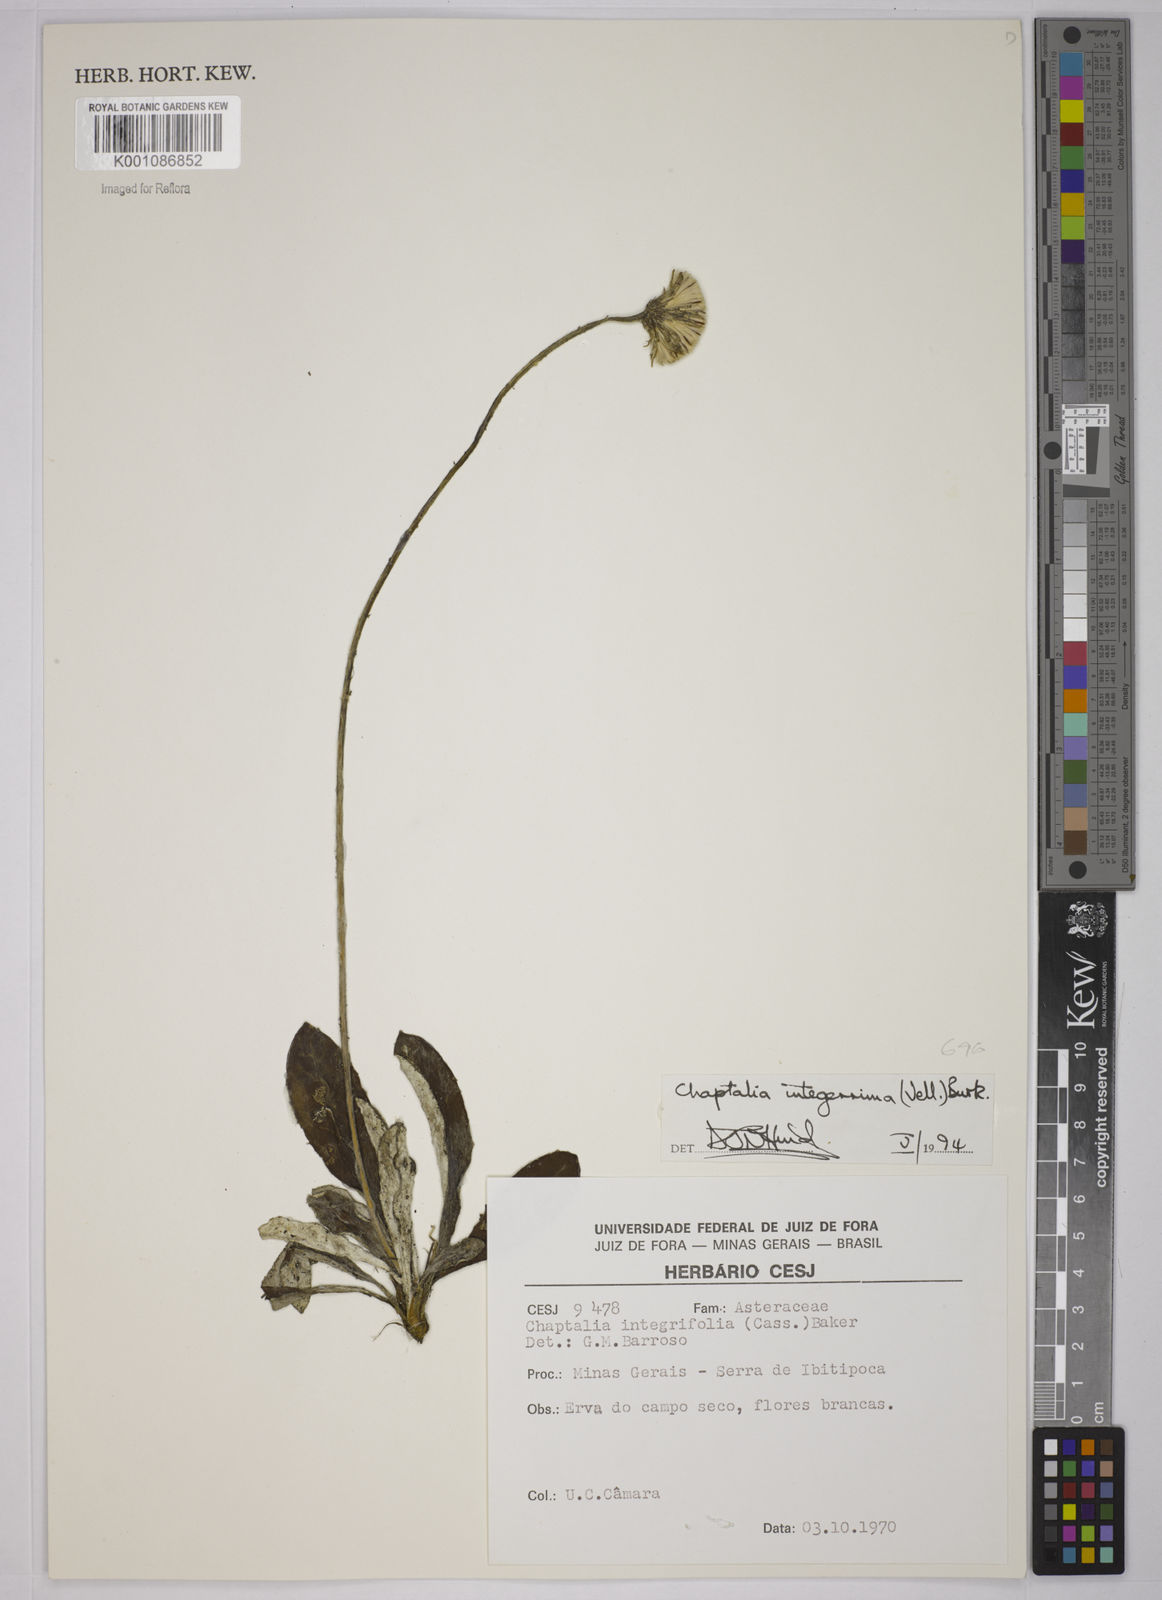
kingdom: Plantae
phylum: Tracheophyta
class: Magnoliopsida
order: Asterales
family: Asteraceae
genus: Chaptalia
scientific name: Chaptalia integerrima
